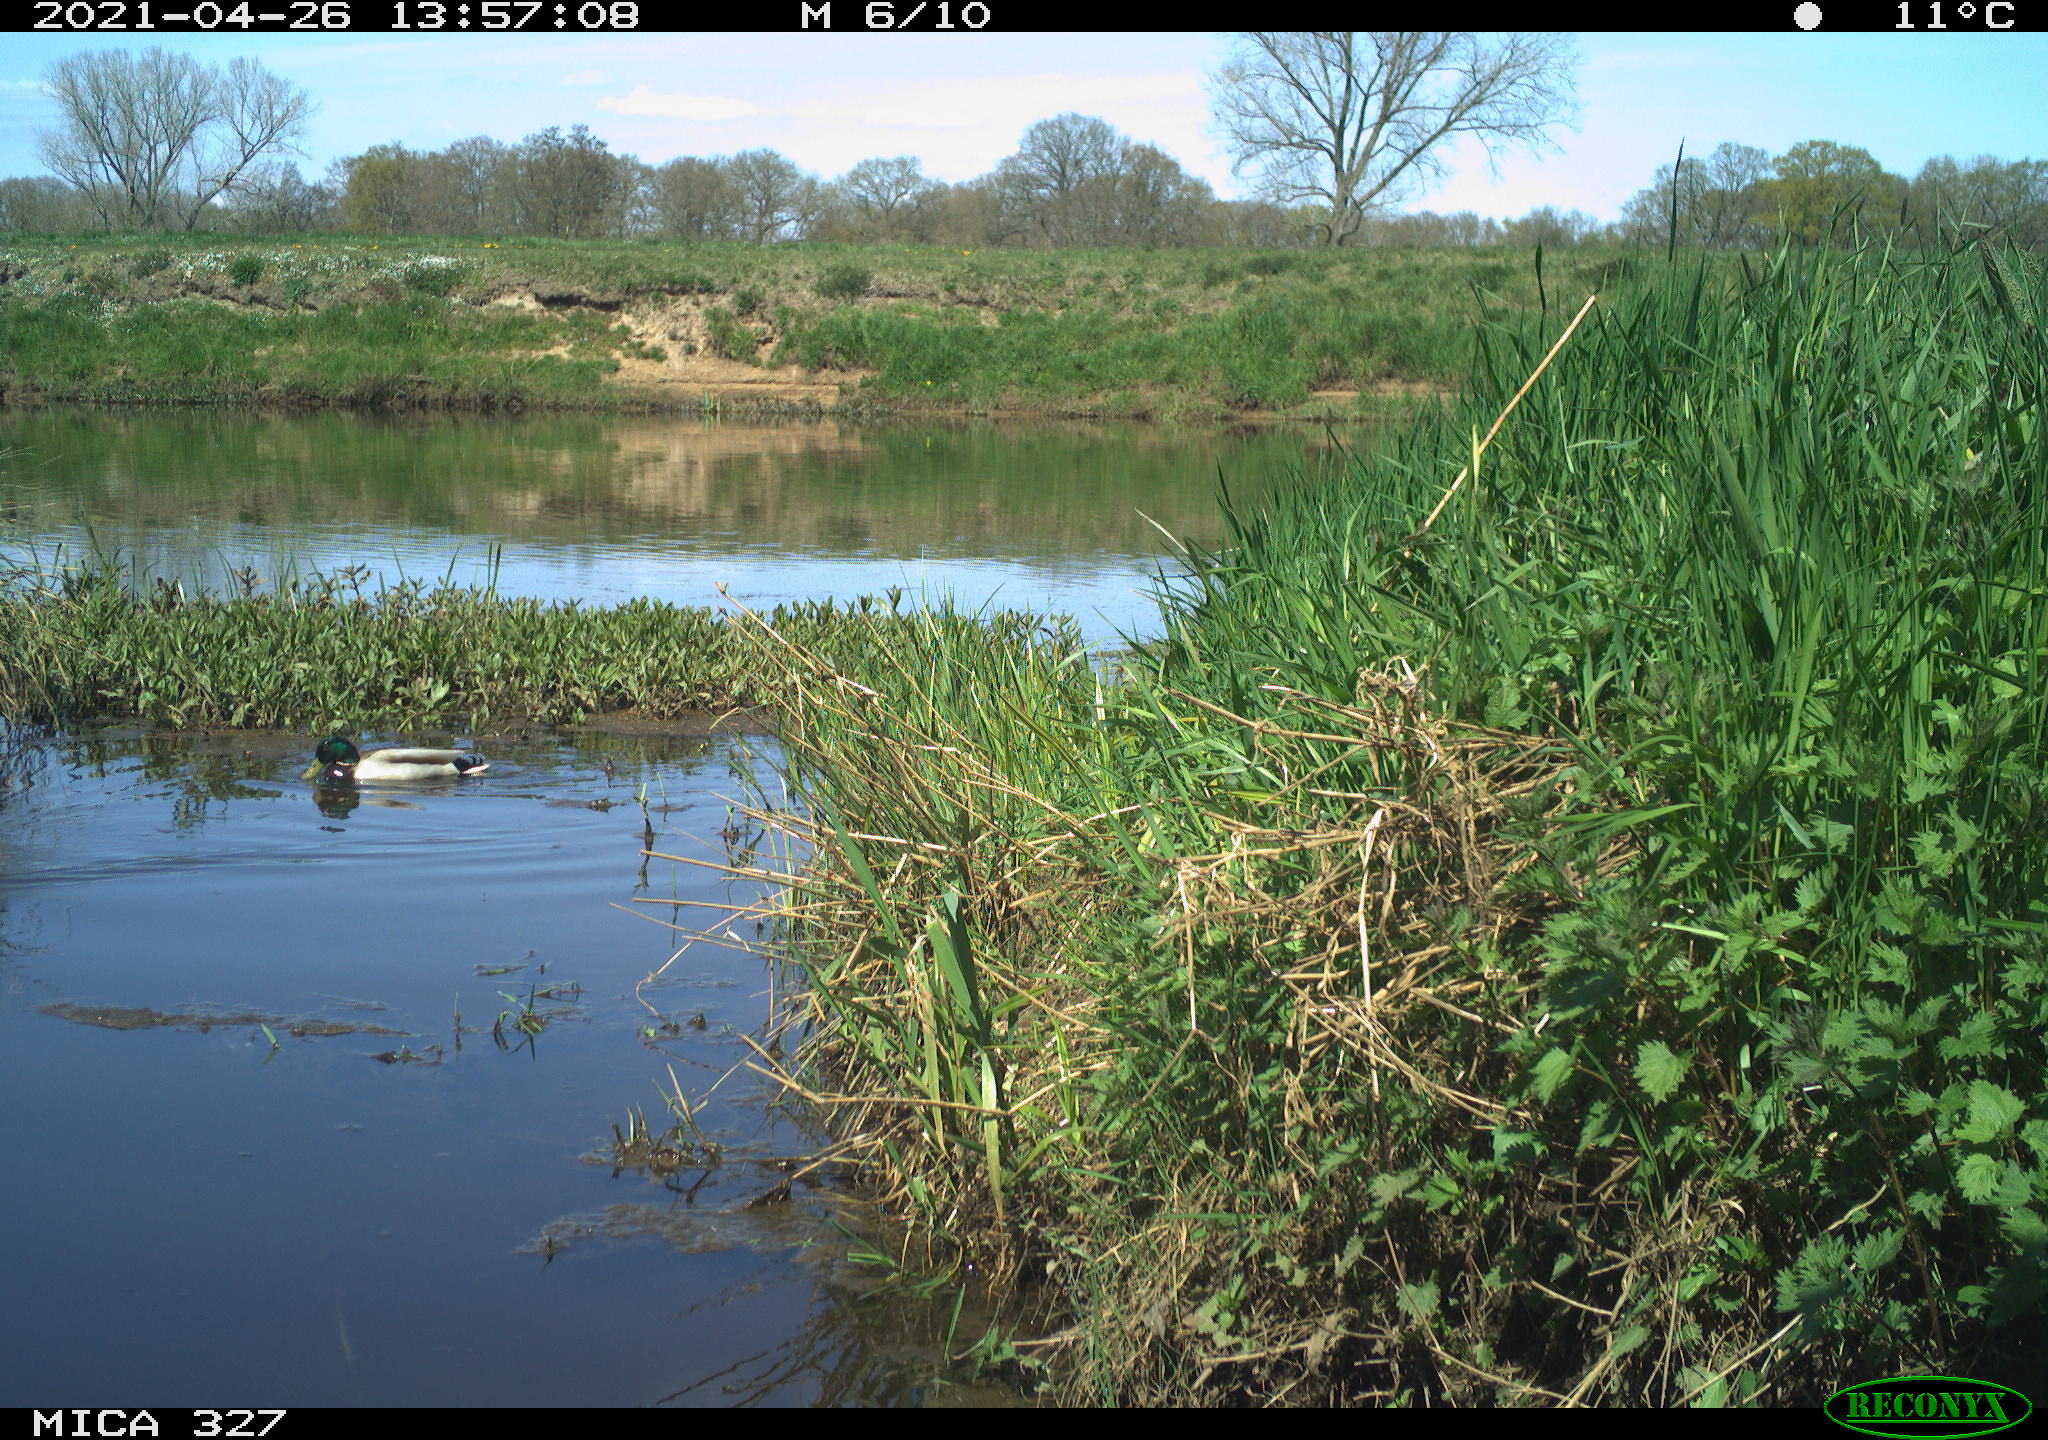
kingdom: Animalia
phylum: Chordata
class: Aves
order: Gruiformes
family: Rallidae
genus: Fulica
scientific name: Fulica atra
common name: Eurasian coot
